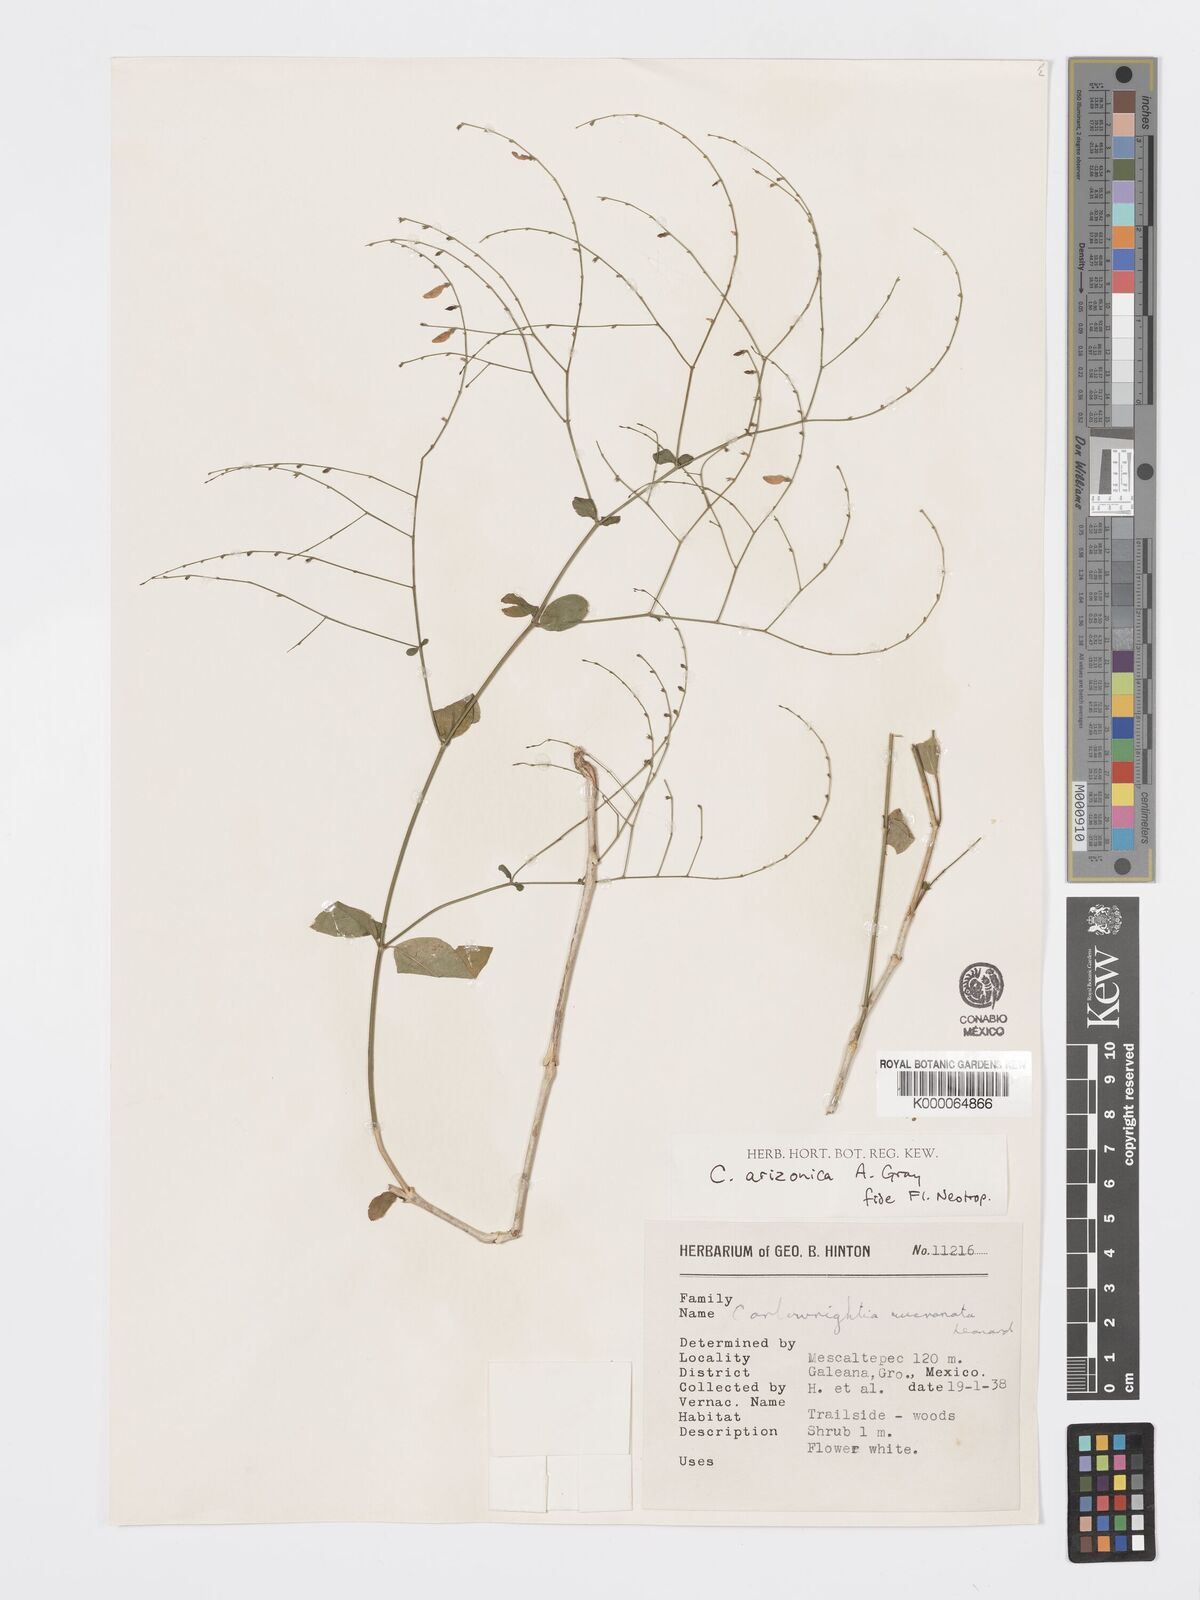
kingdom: Plantae
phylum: Tracheophyta
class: Magnoliopsida
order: Lamiales
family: Acanthaceae
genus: Carlowrightia
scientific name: Carlowrightia arizonica
